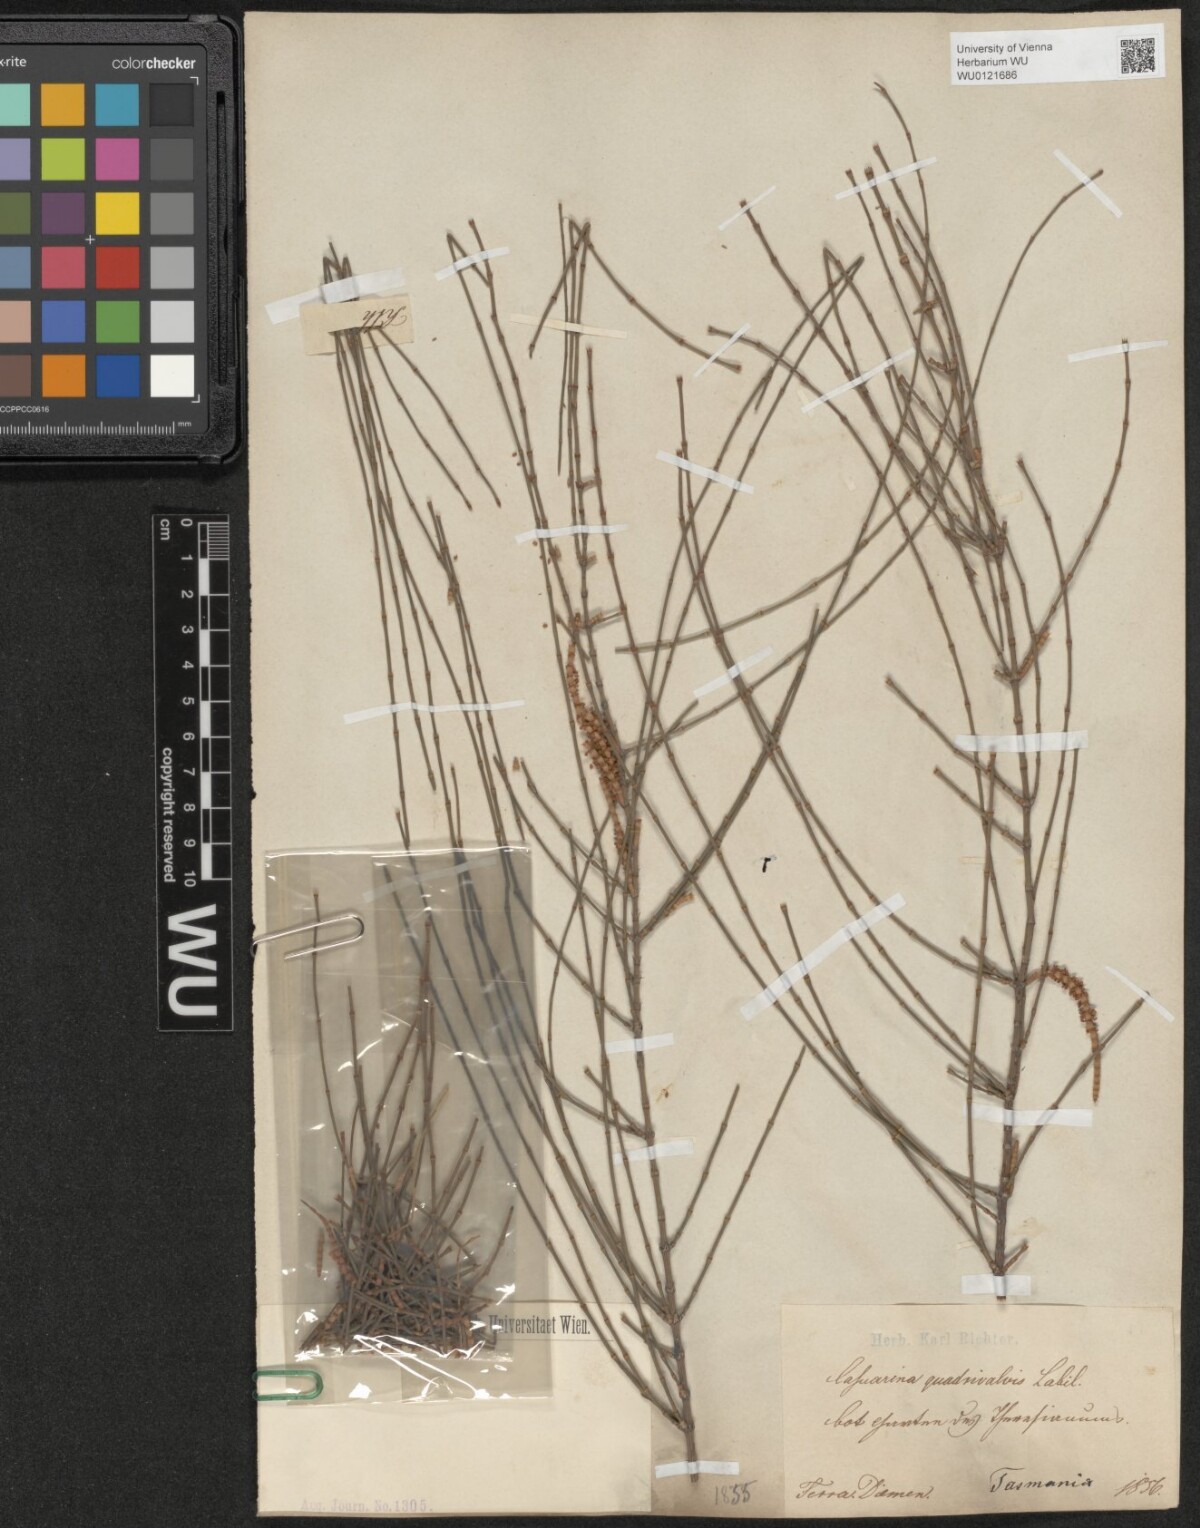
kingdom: Plantae
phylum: Tracheophyta
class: Magnoliopsida
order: Fagales
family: Casuarinaceae
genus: Allocasuarina
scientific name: Allocasuarina verticillata
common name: Drooping she-oak
